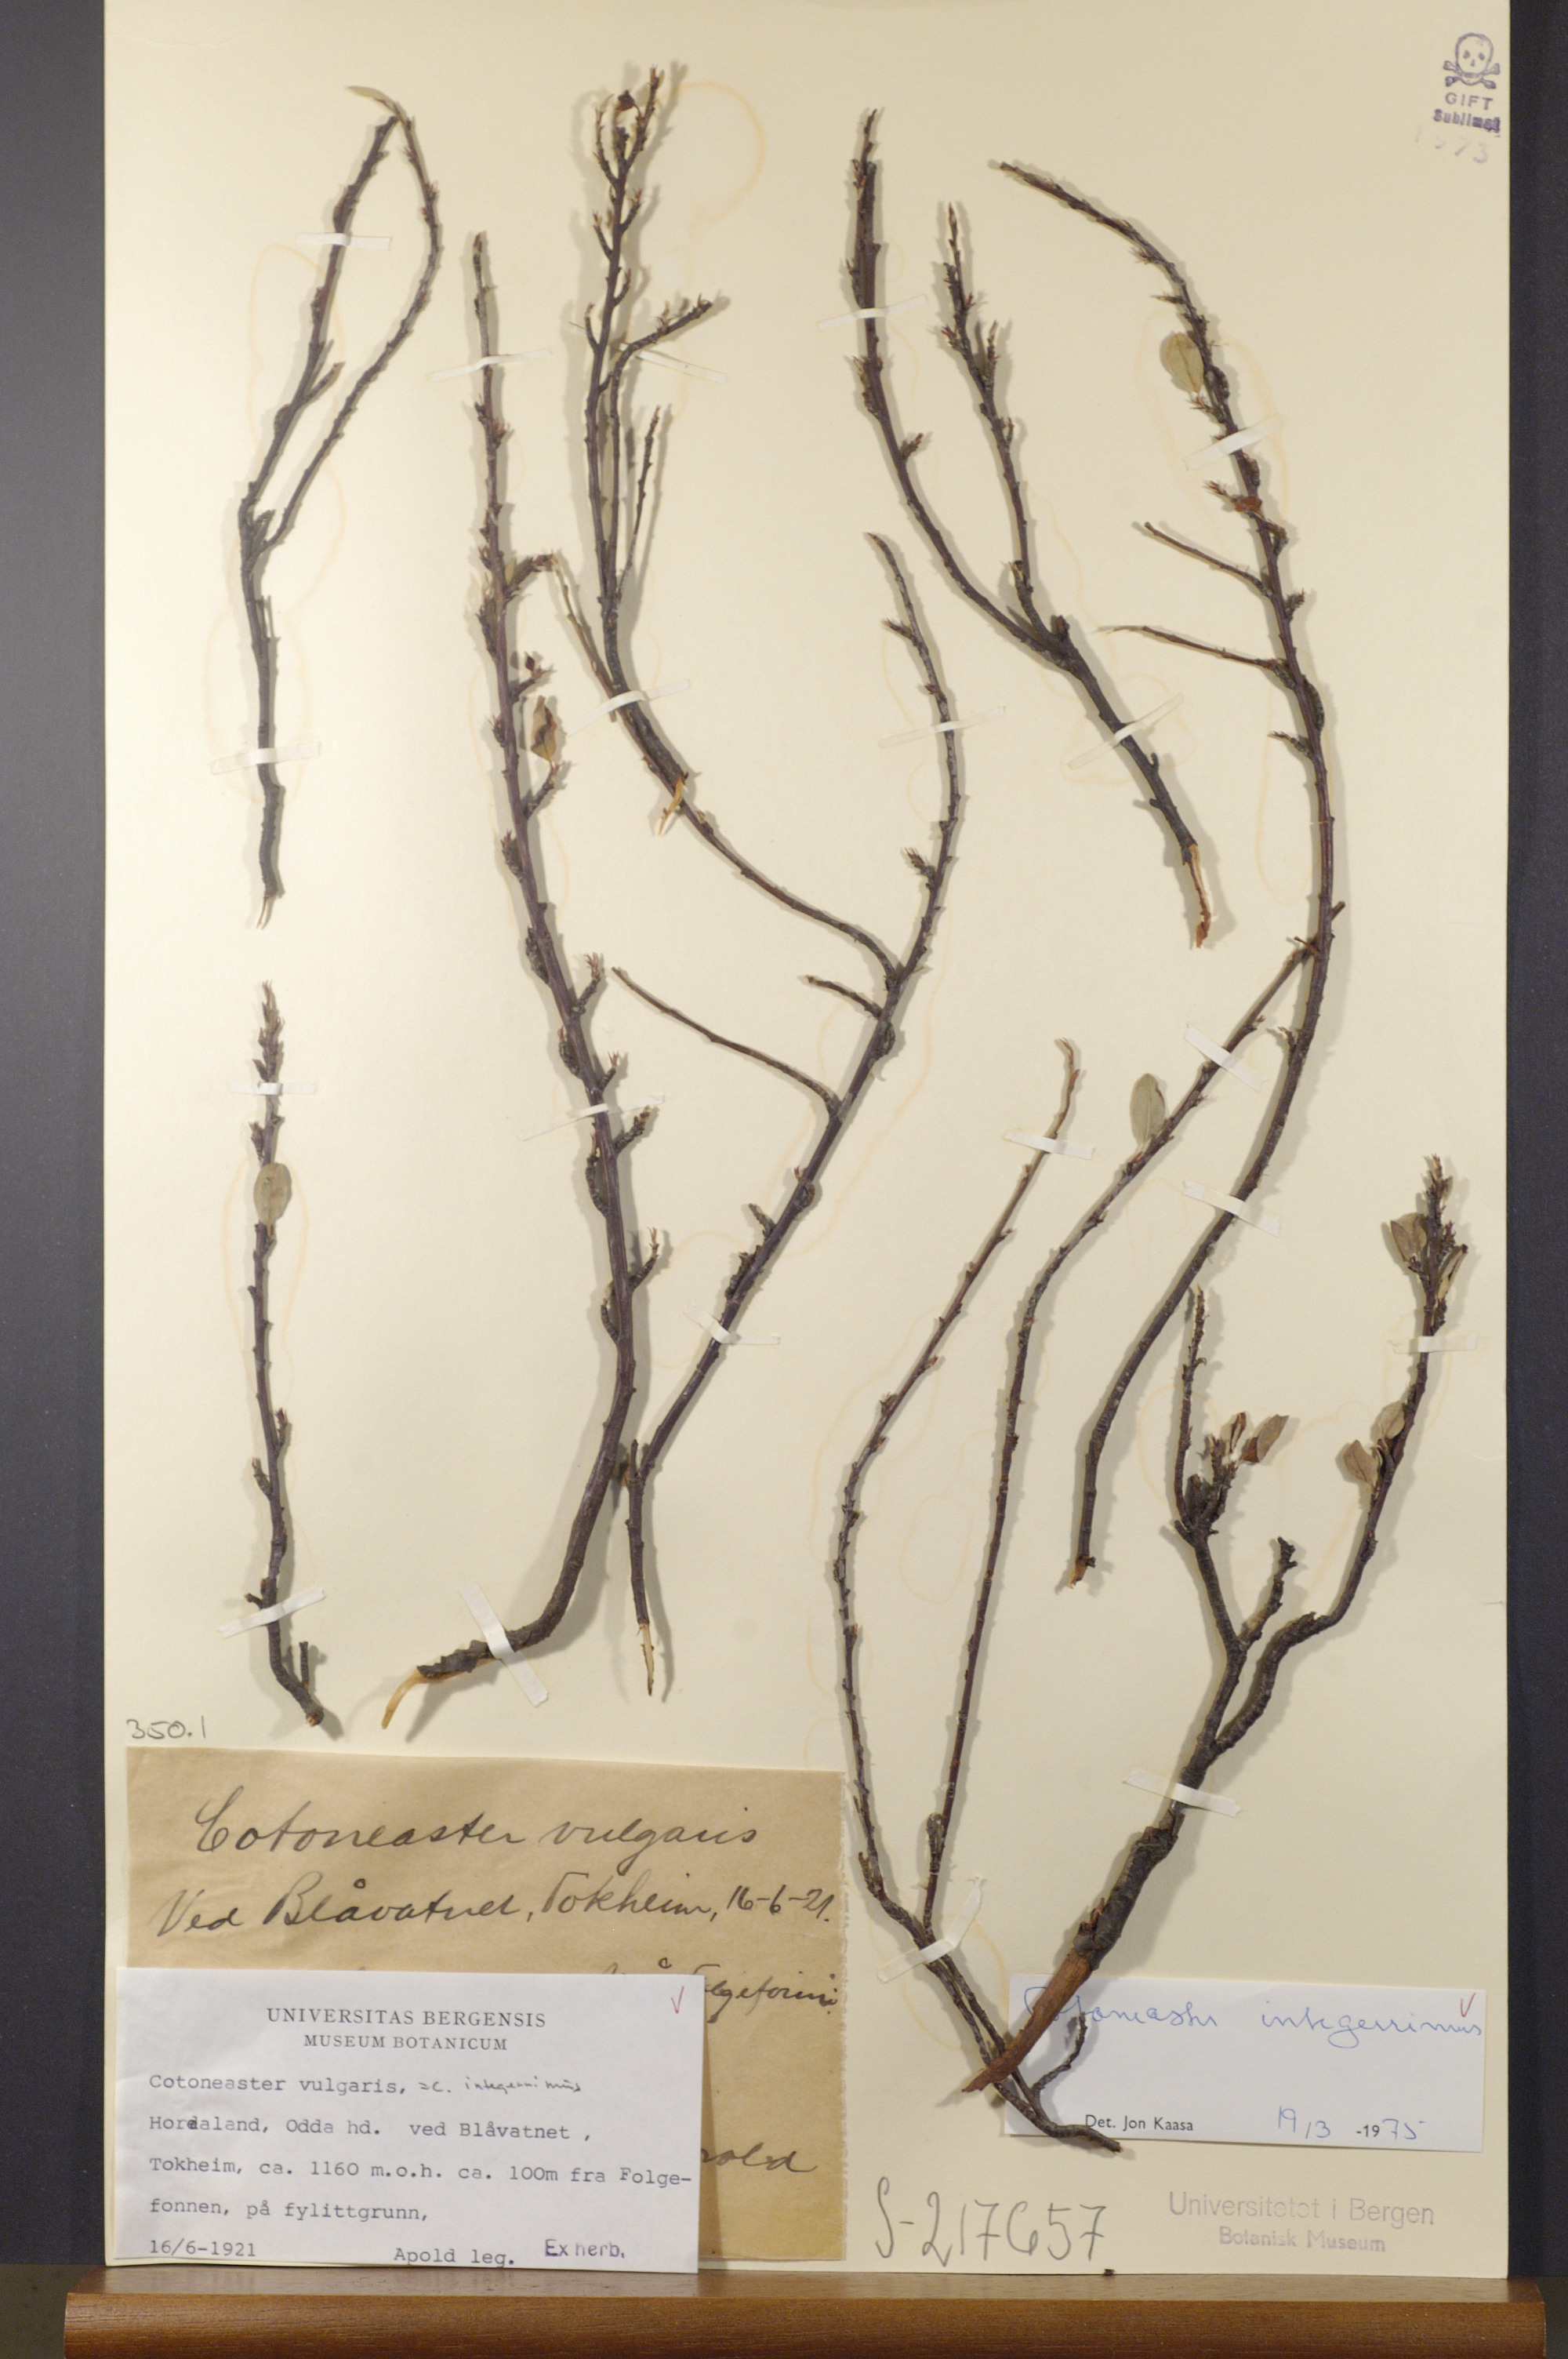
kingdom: Plantae
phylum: Tracheophyta
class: Magnoliopsida
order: Rosales
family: Rosaceae
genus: Cotoneaster
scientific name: Cotoneaster integerrimus
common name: Wild cotoneaster
